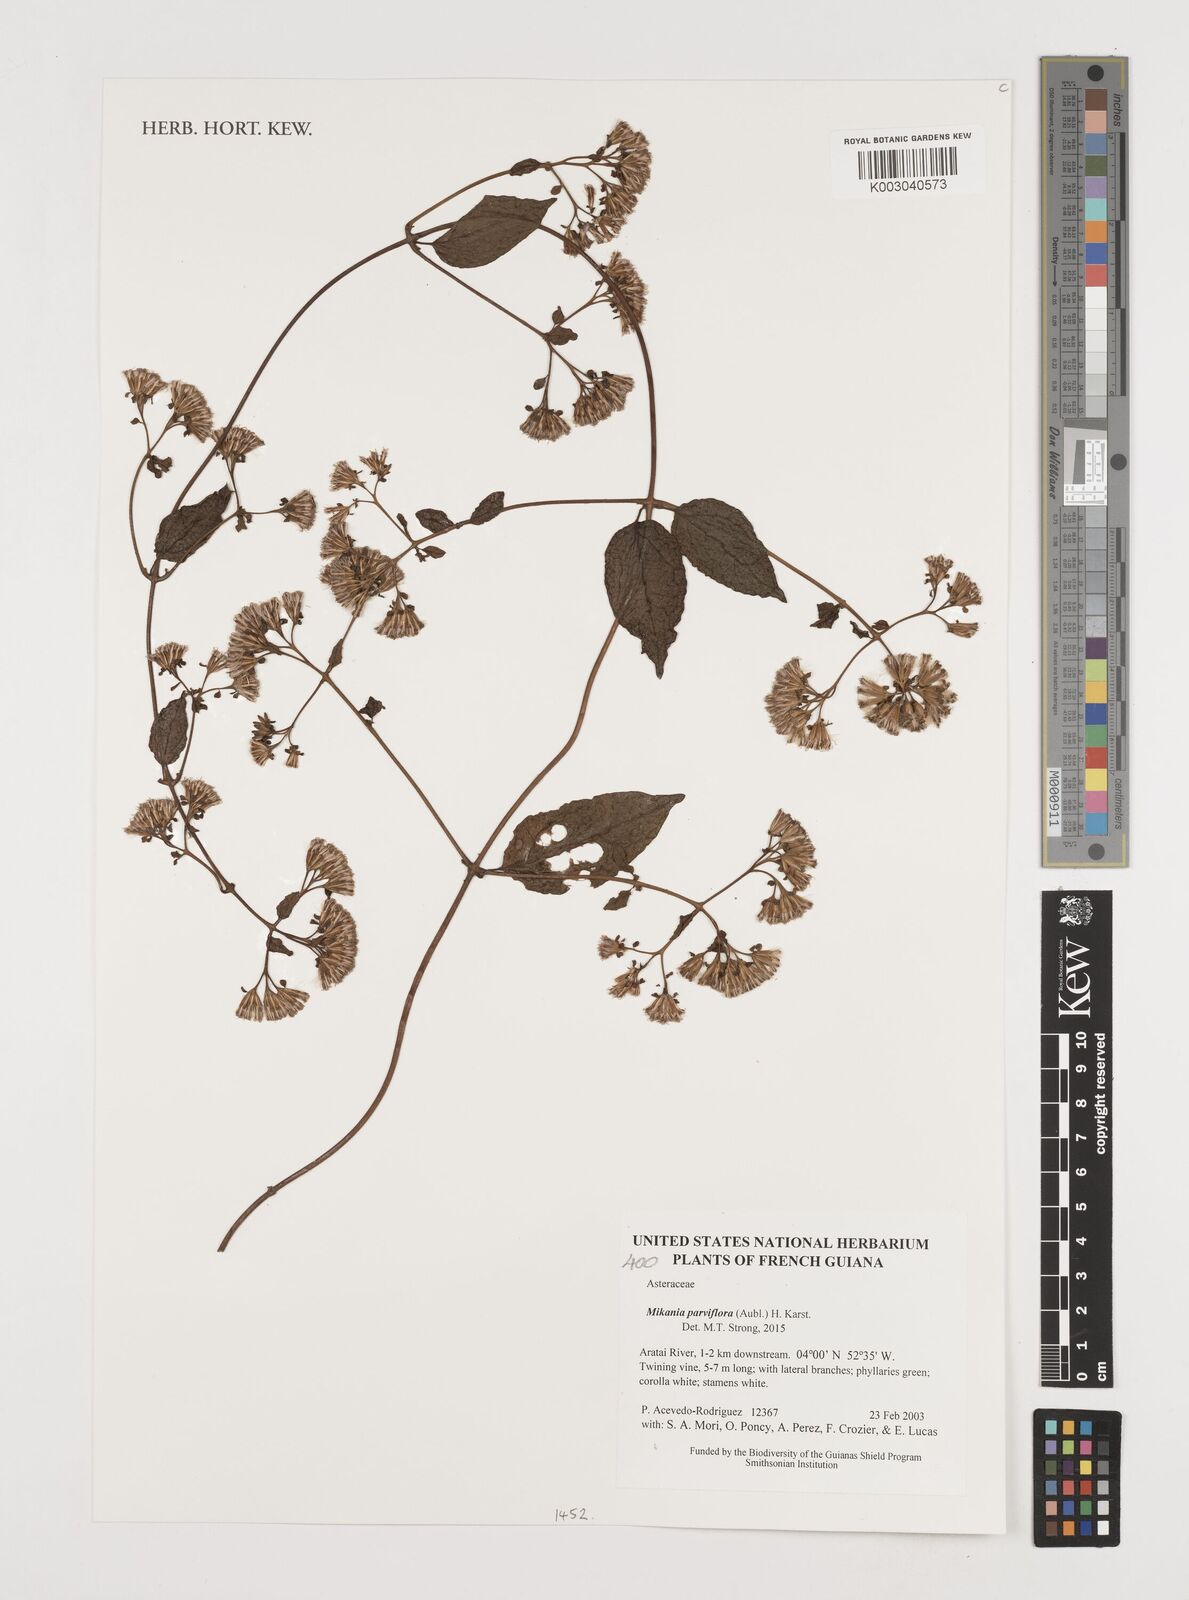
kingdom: Plantae
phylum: Tracheophyta
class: Magnoliopsida
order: Asterales
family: Asteraceae
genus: Mikania
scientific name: Mikania parviflora
